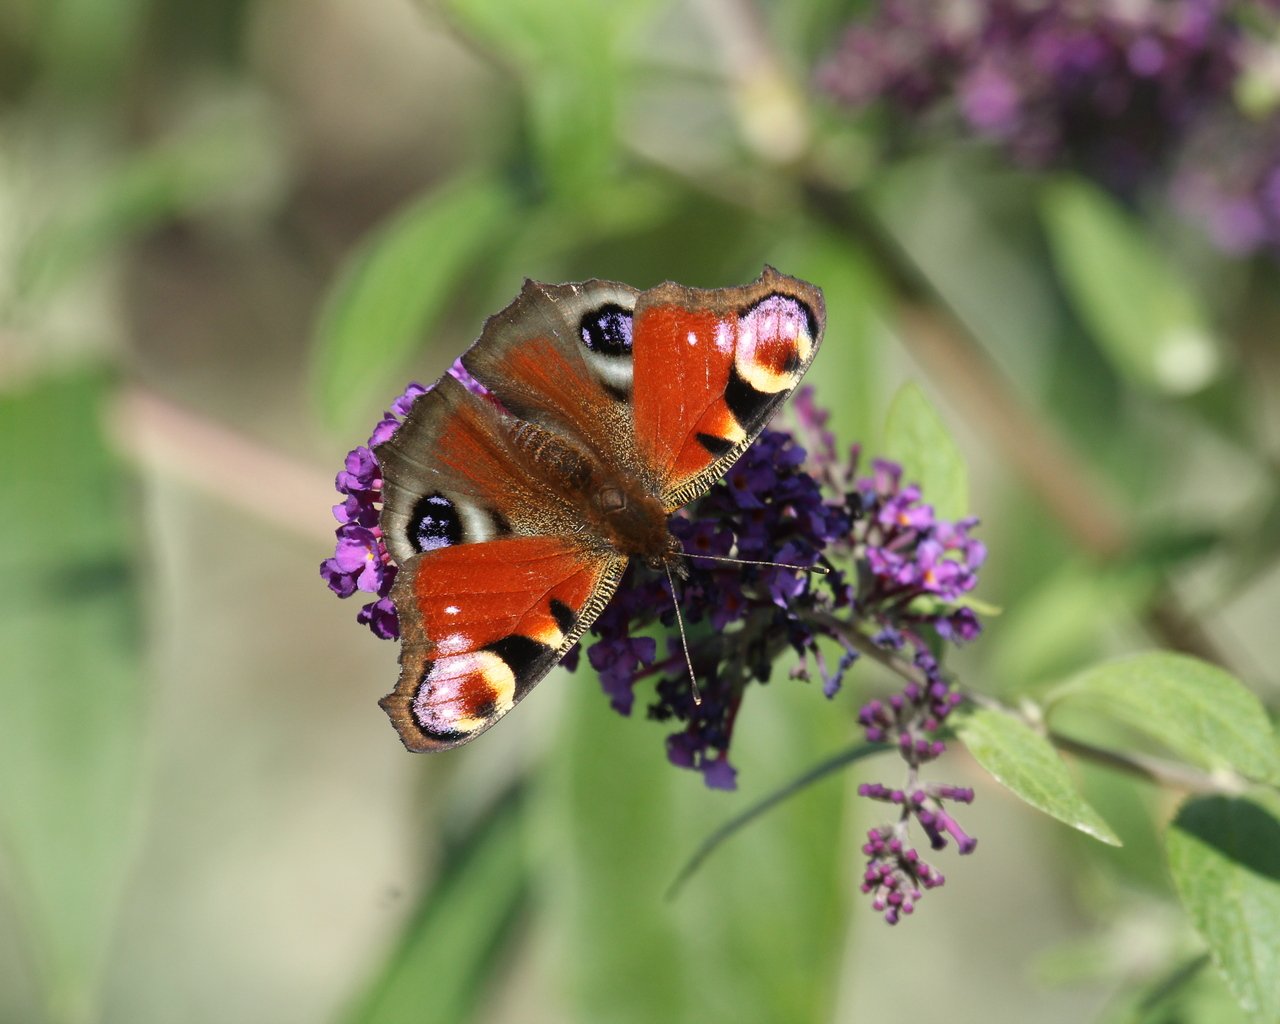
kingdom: Animalia
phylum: Arthropoda
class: Insecta
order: Lepidoptera
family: Nymphalidae
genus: Aglais
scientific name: Aglais io
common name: European Peacock
